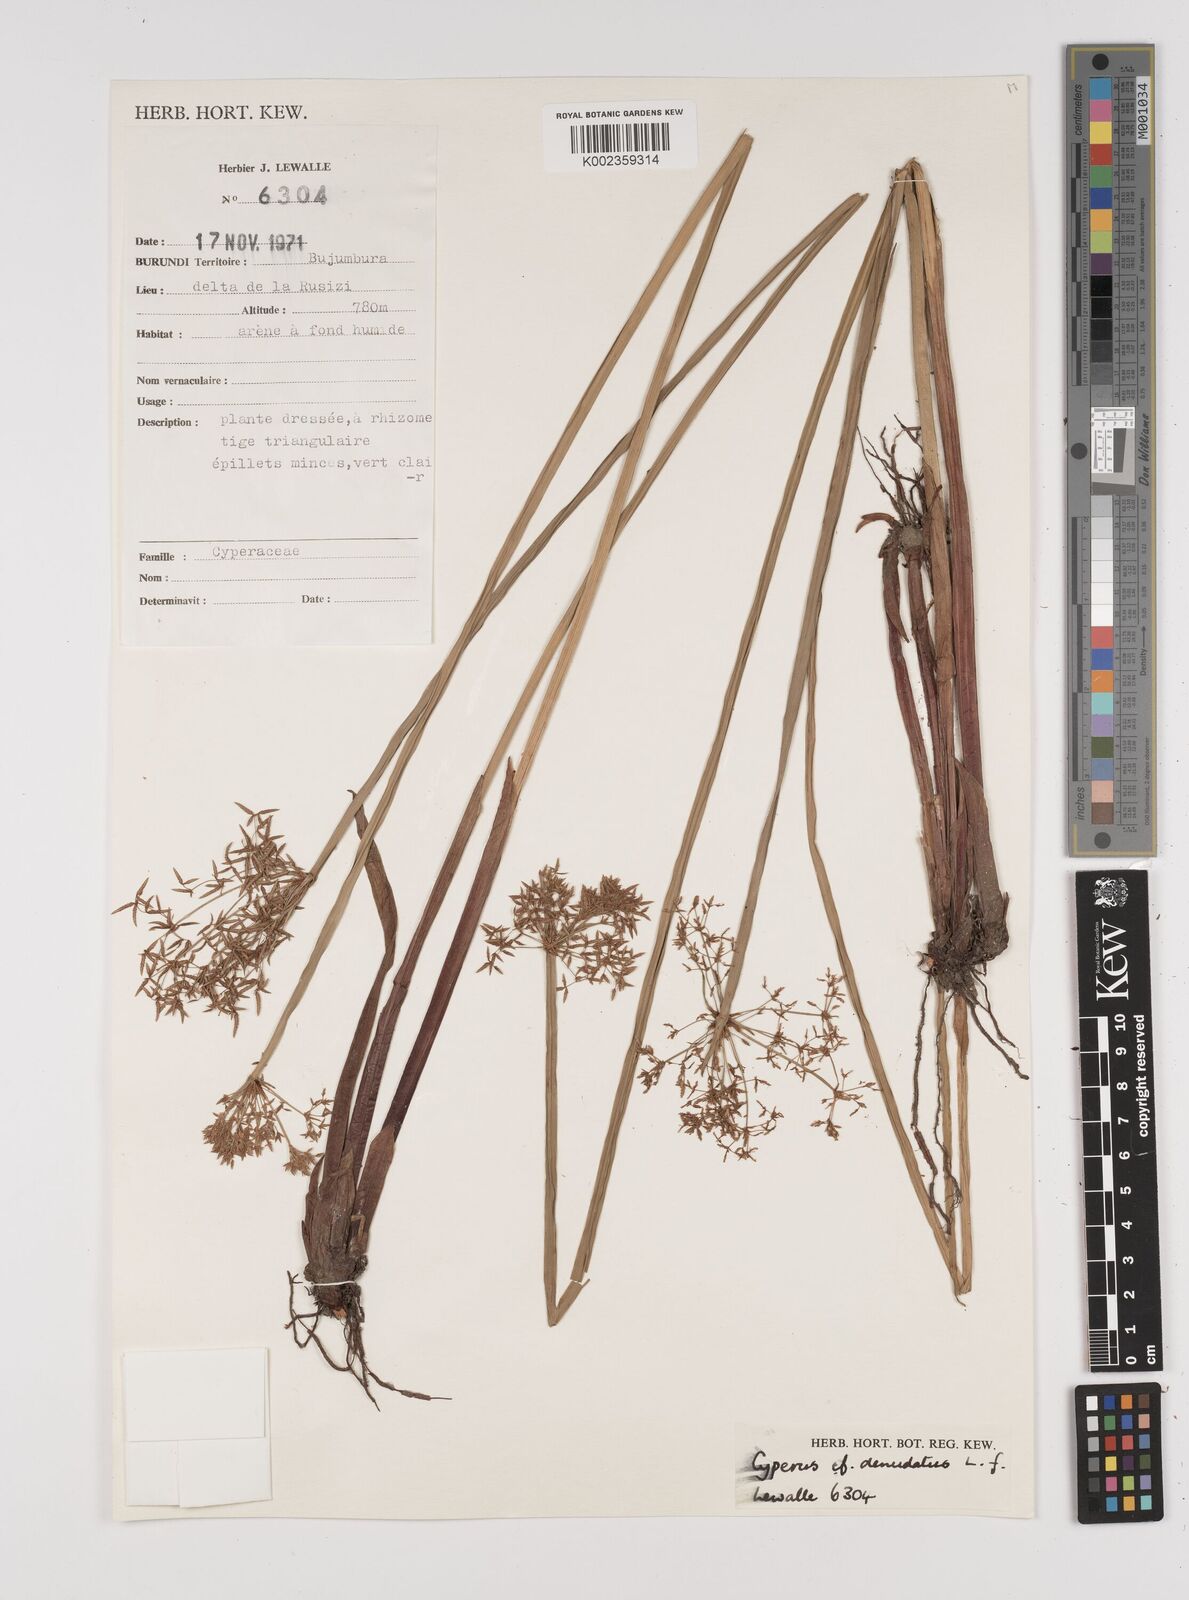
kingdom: Plantae
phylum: Tracheophyta
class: Liliopsida
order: Poales
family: Cyperaceae
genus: Cyperus
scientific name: Cyperus haspan
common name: Haspan flatsedge
